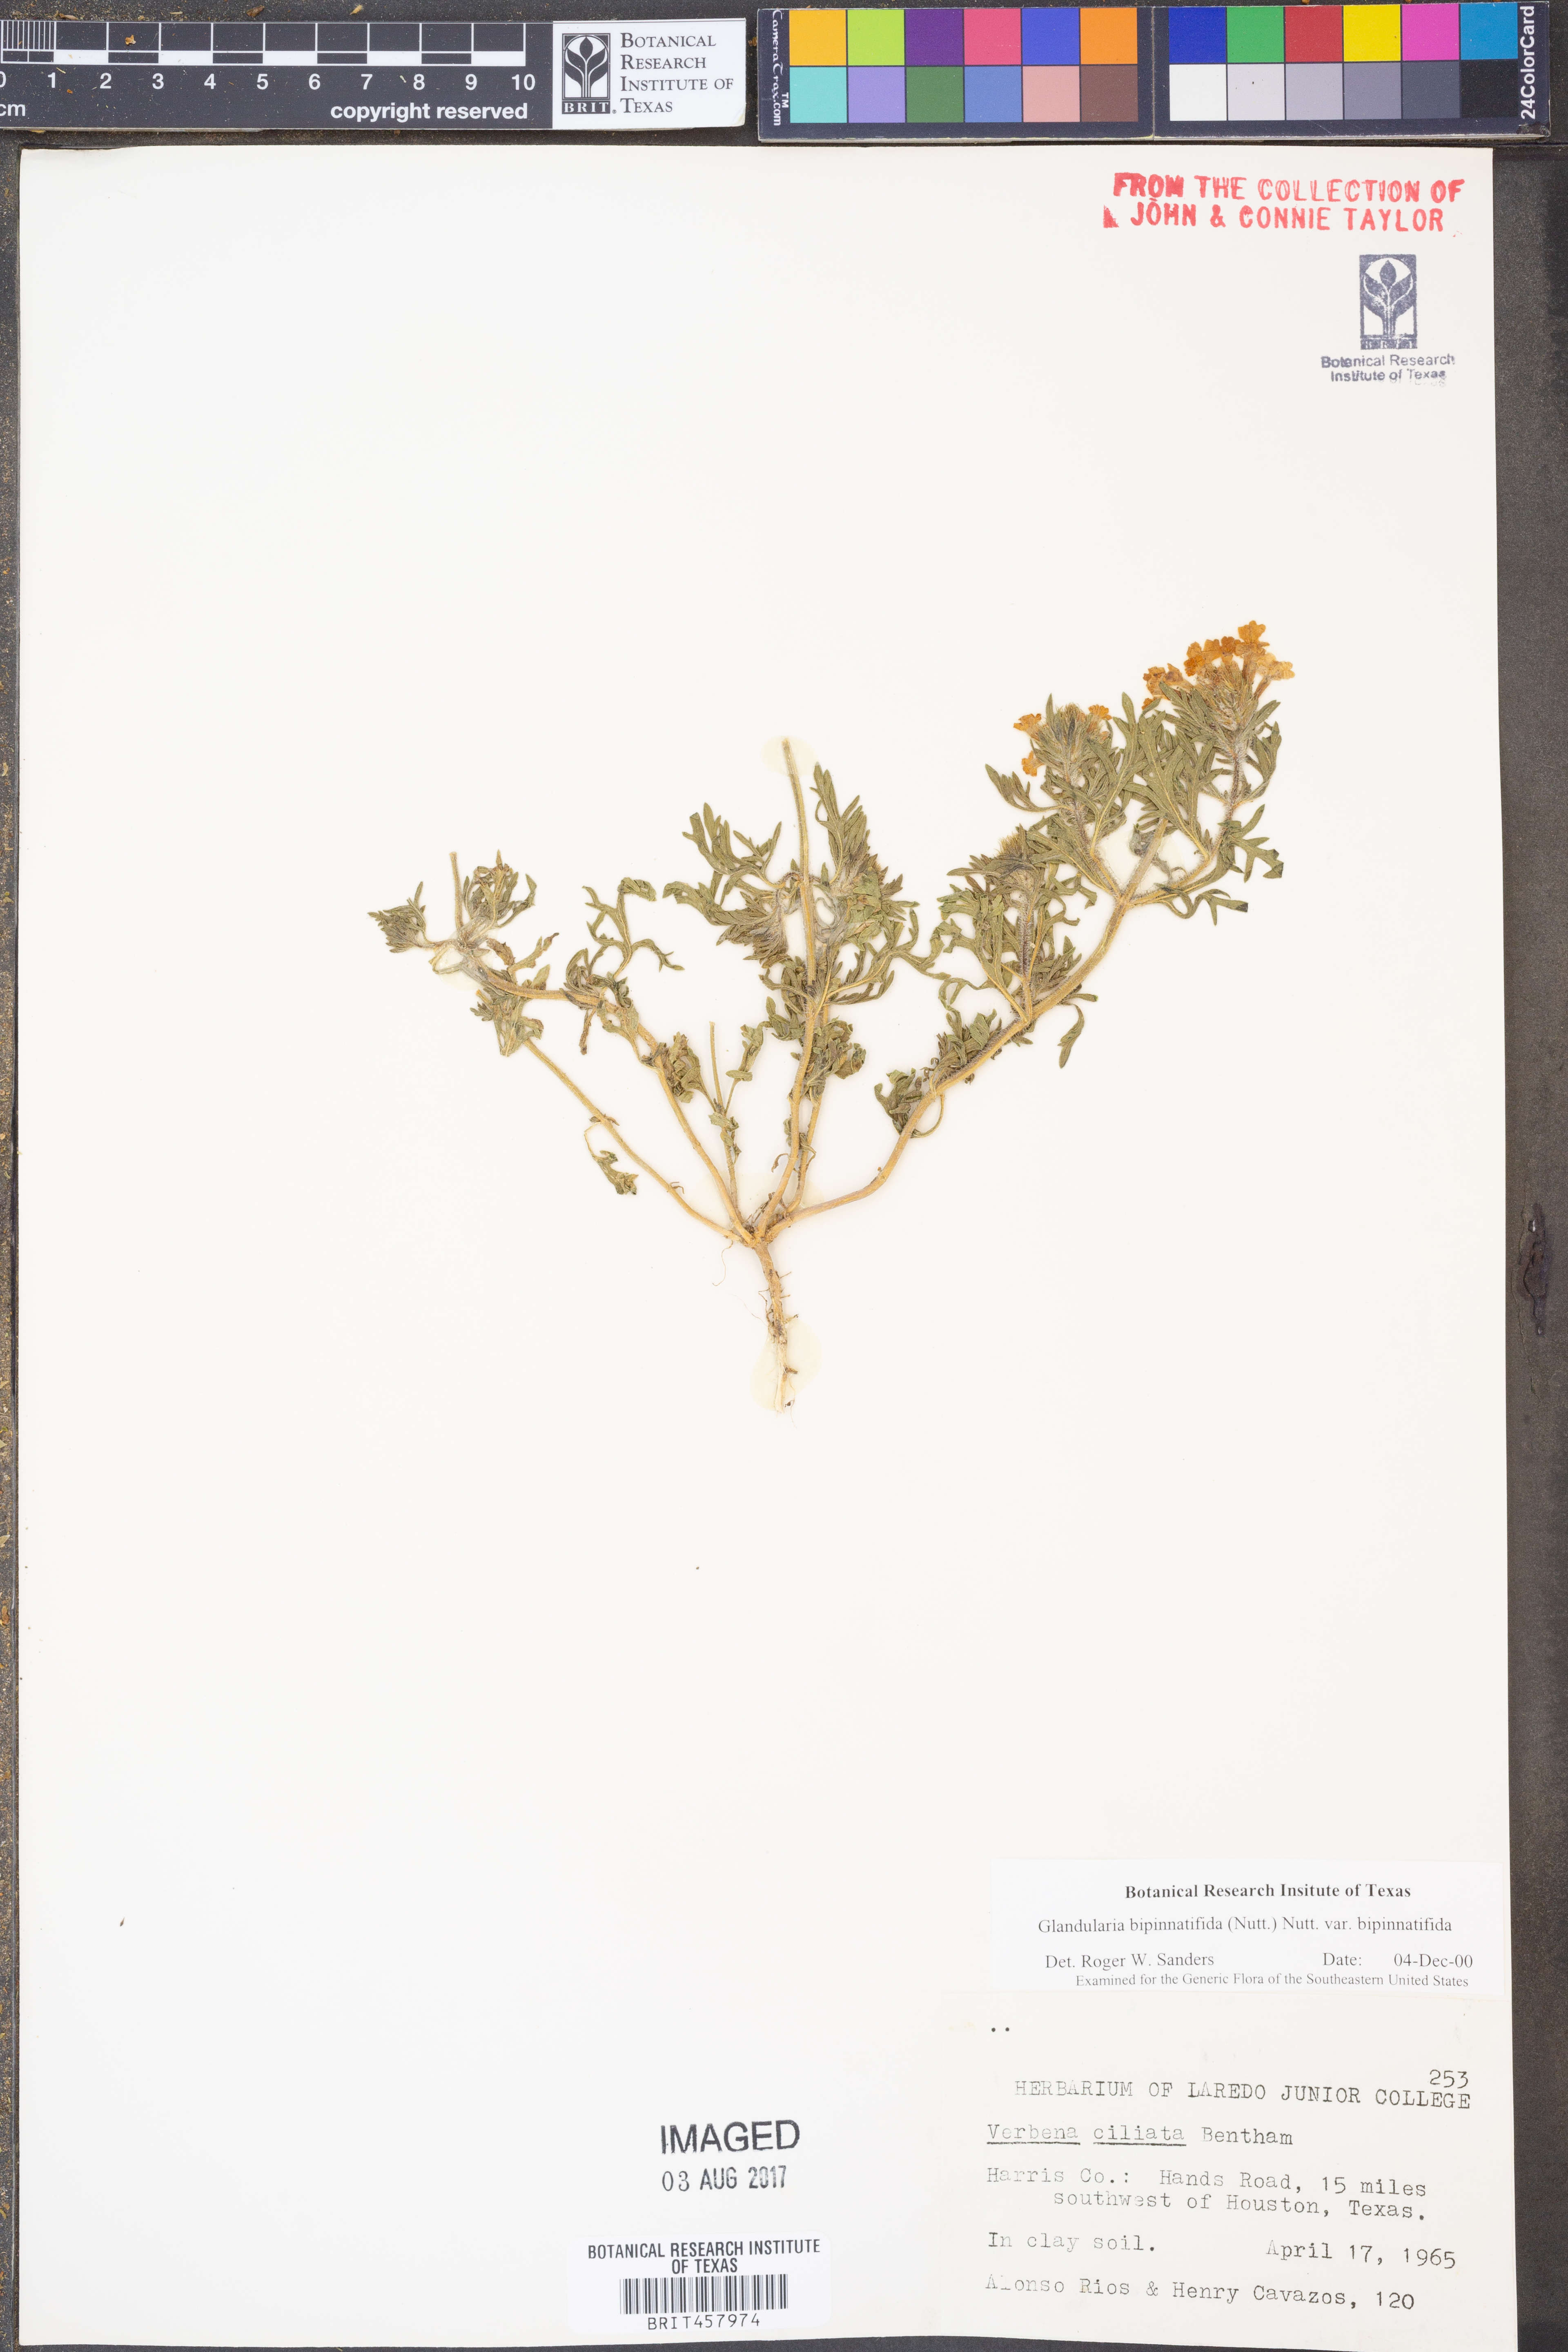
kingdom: Plantae
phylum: Tracheophyta
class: Magnoliopsida
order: Lamiales
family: Verbenaceae
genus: Verbena
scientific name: Verbena bipinnatifida
